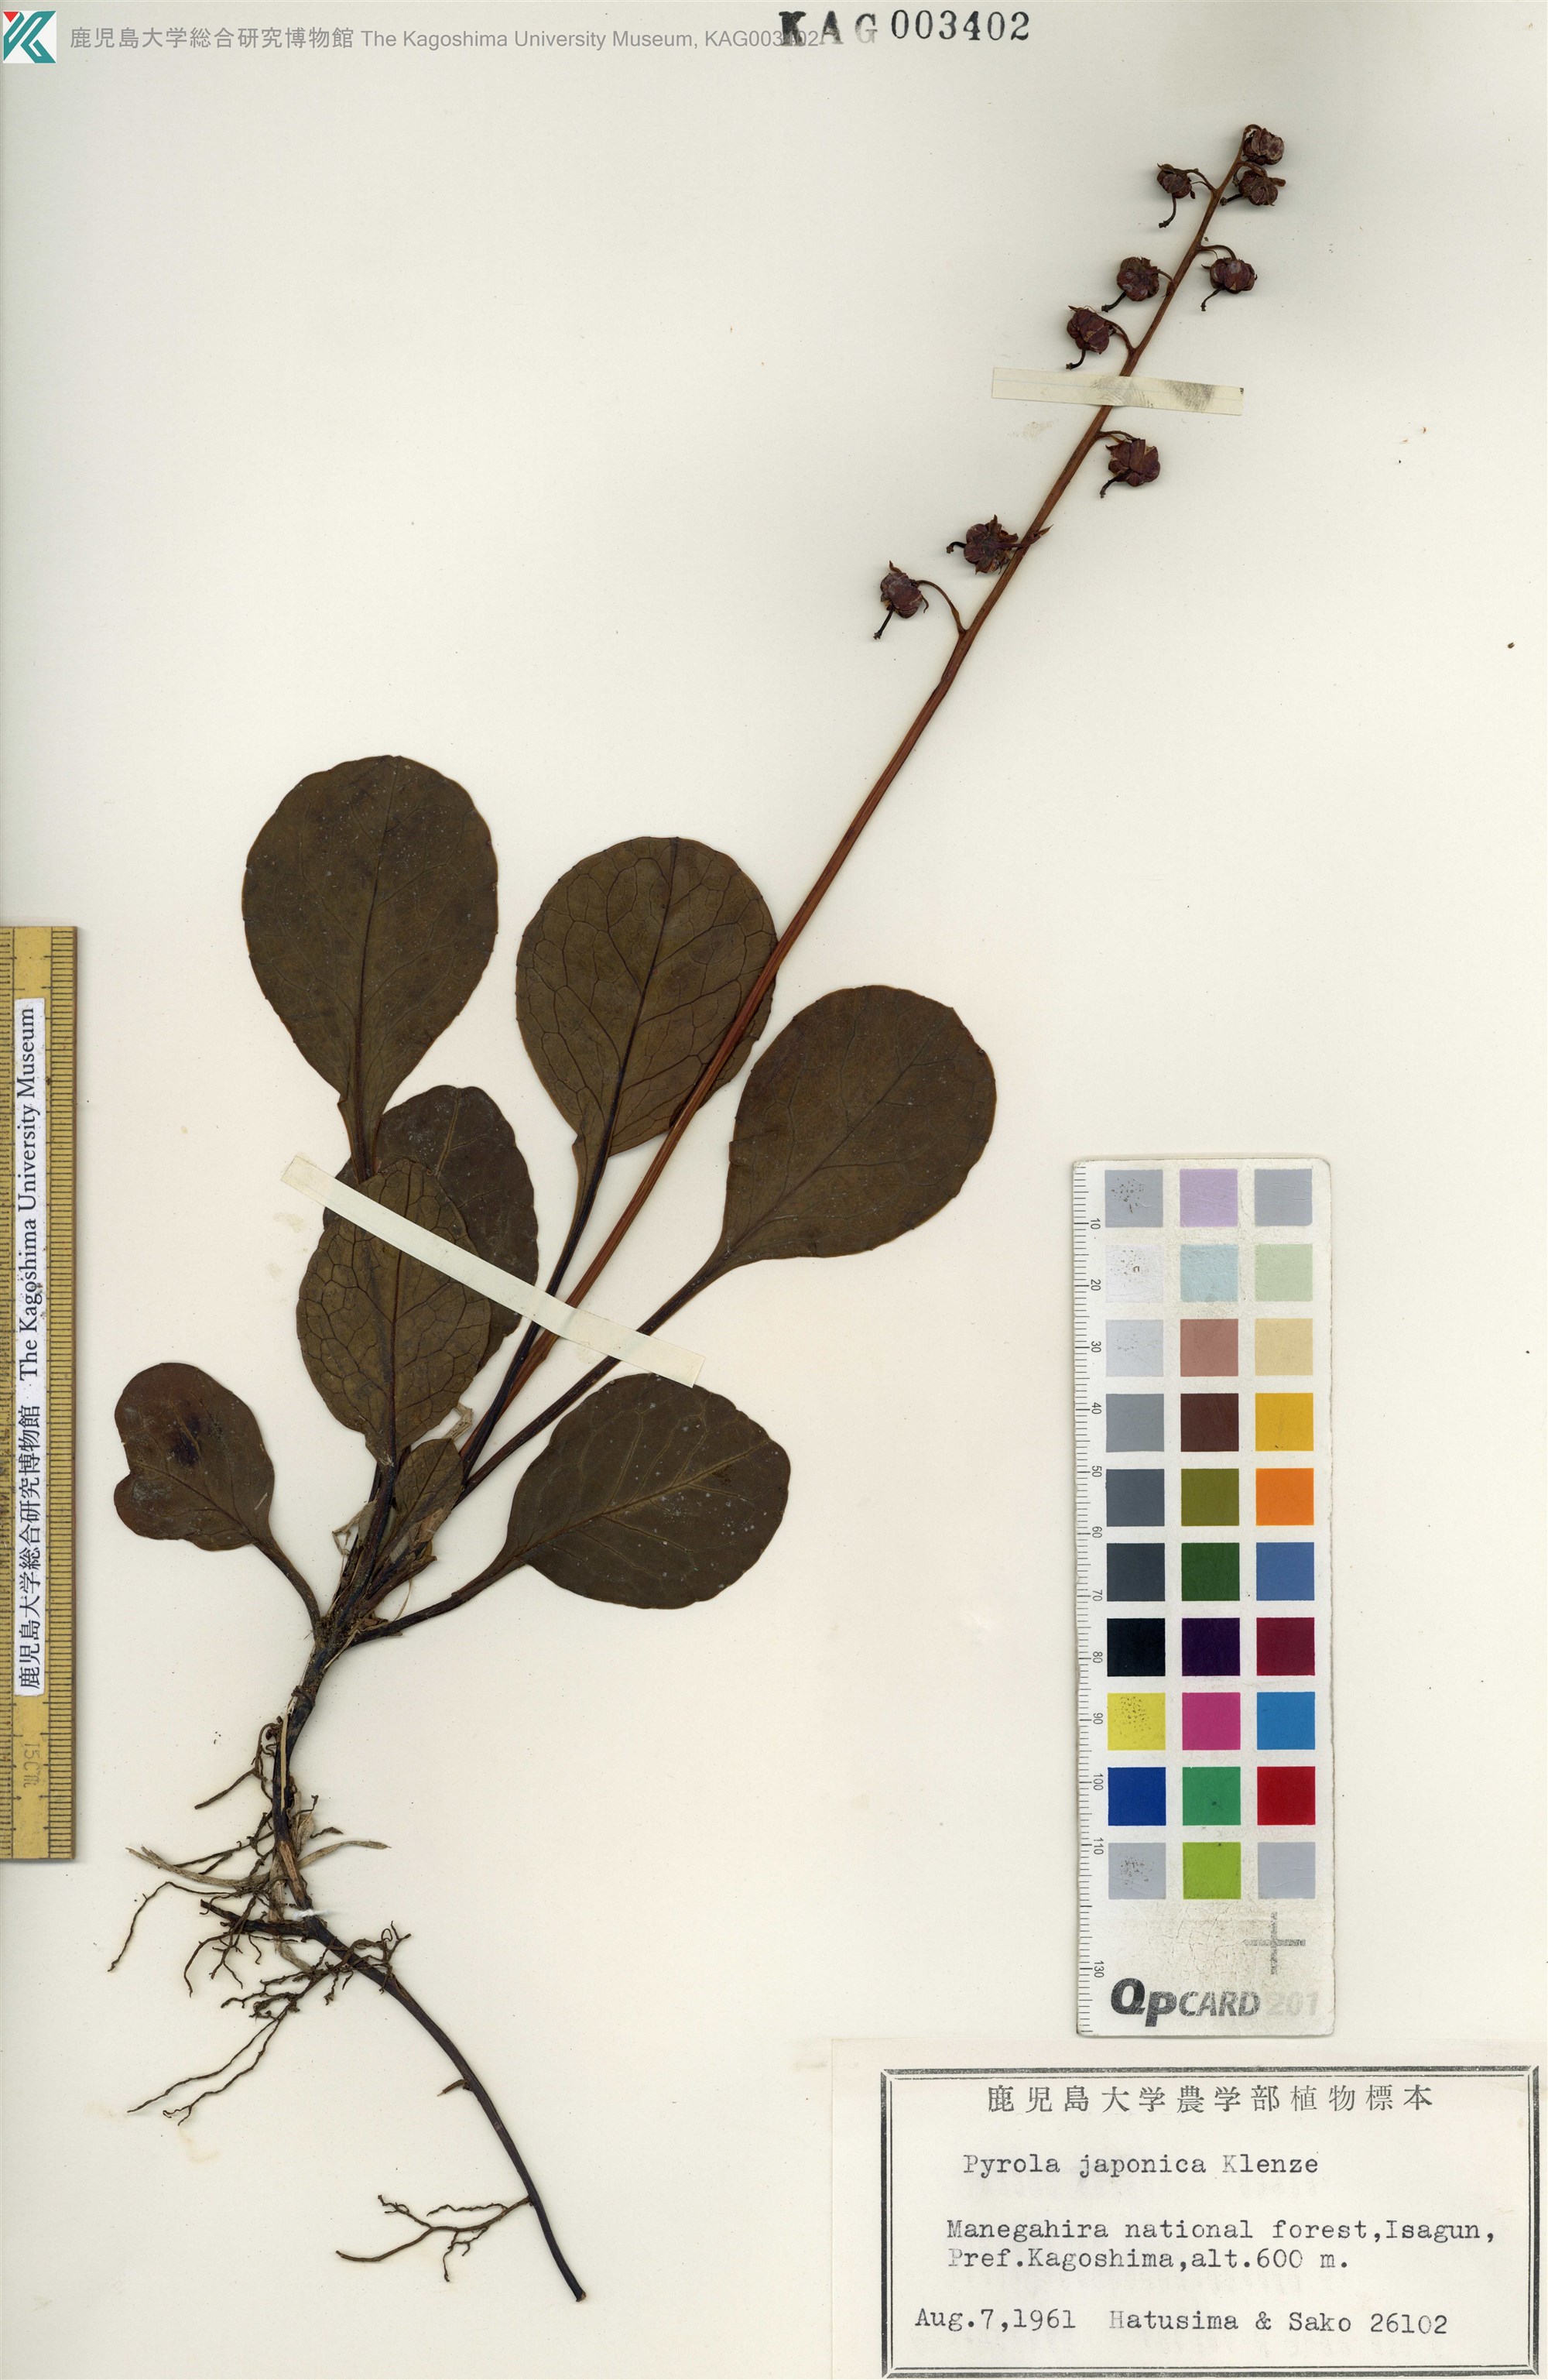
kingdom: Plantae
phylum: Tracheophyta
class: Magnoliopsida
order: Ericales
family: Ericaceae
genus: Pyrola
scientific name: Pyrola japonica
